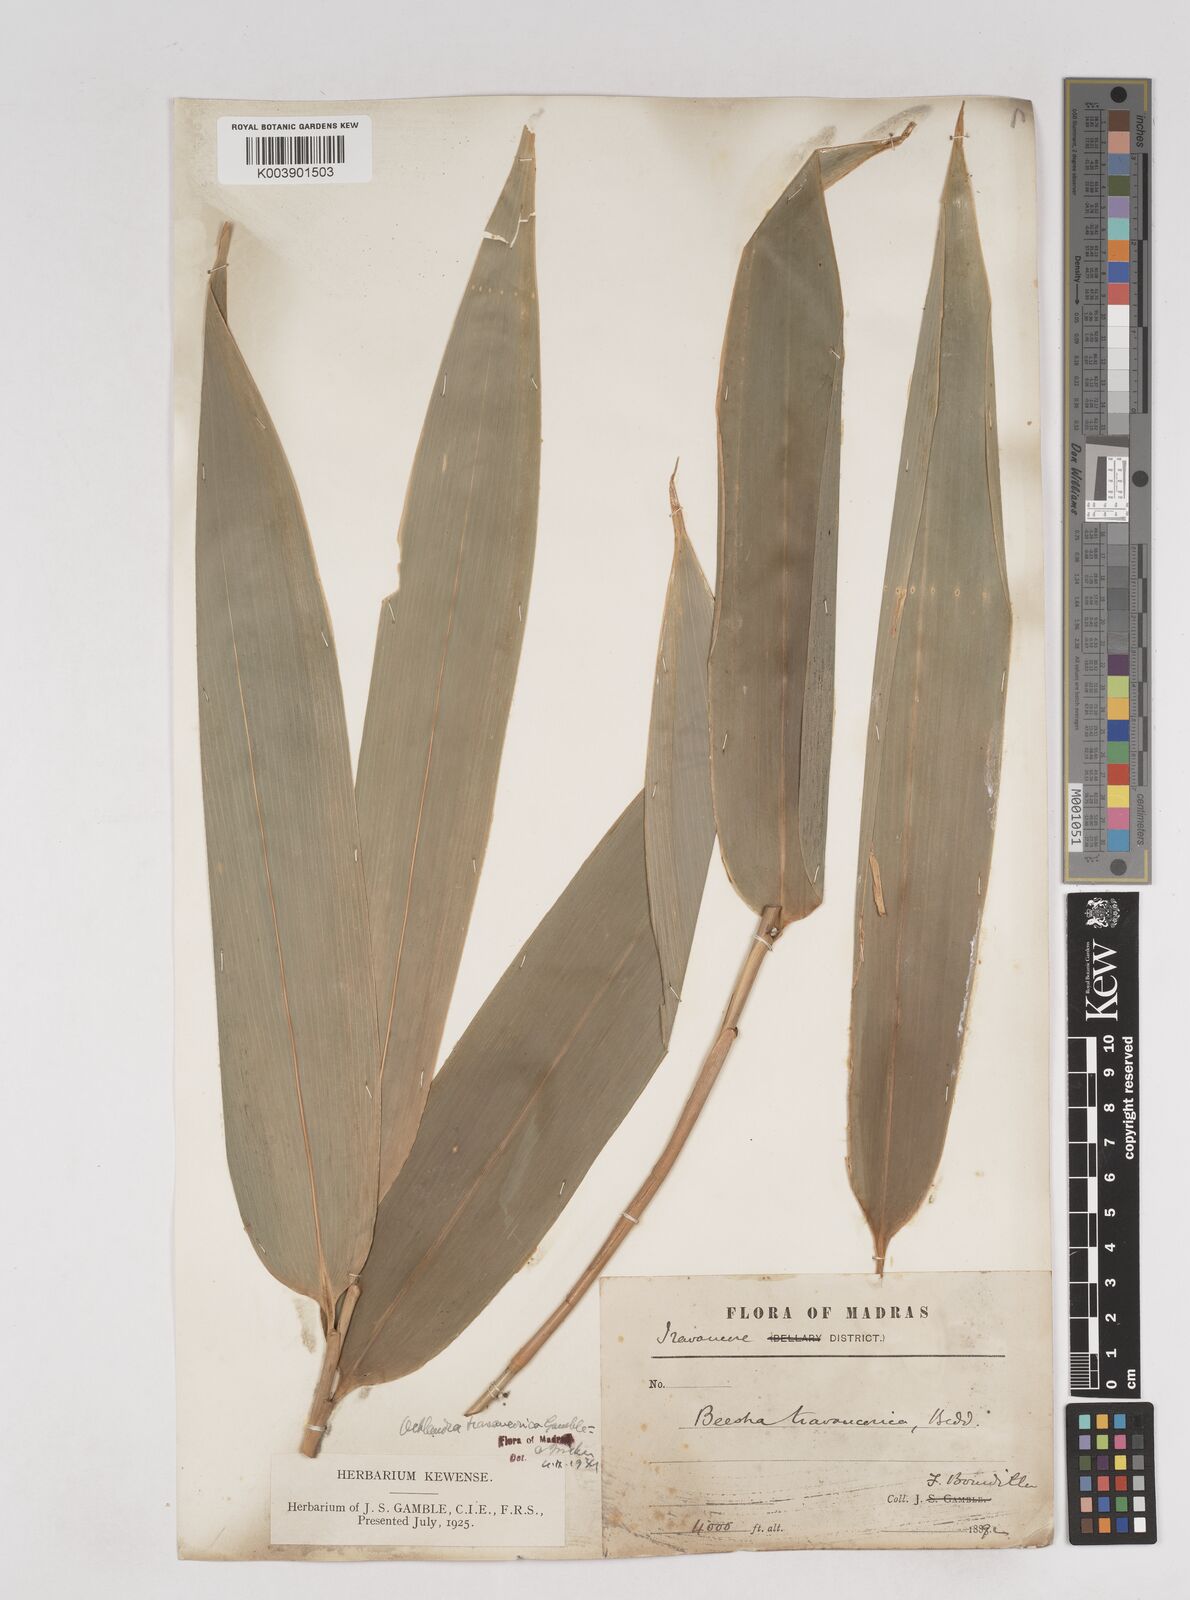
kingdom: Plantae
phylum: Tracheophyta
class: Liliopsida
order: Poales
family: Poaceae
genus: Ochlandra
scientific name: Ochlandra travancorica
